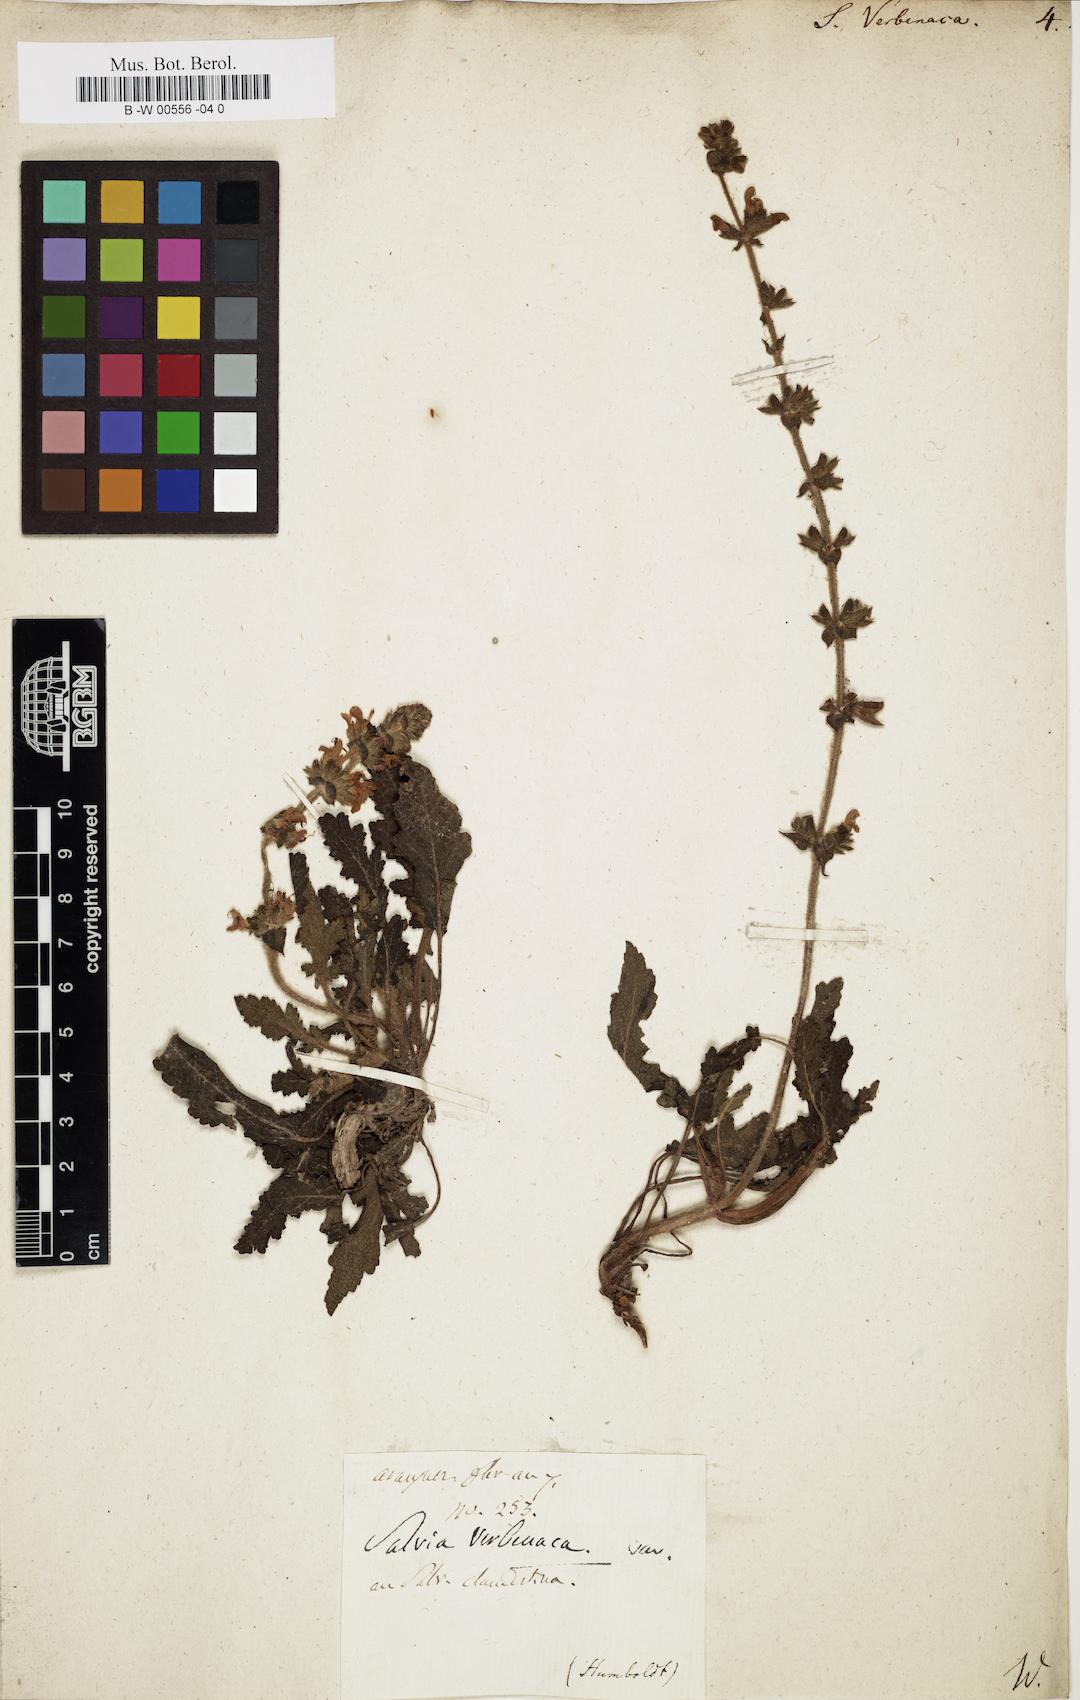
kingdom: Plantae
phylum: Tracheophyta
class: Magnoliopsida
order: Lamiales
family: Lamiaceae
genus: Salvia
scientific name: Salvia verbenaca
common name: Wild clary
